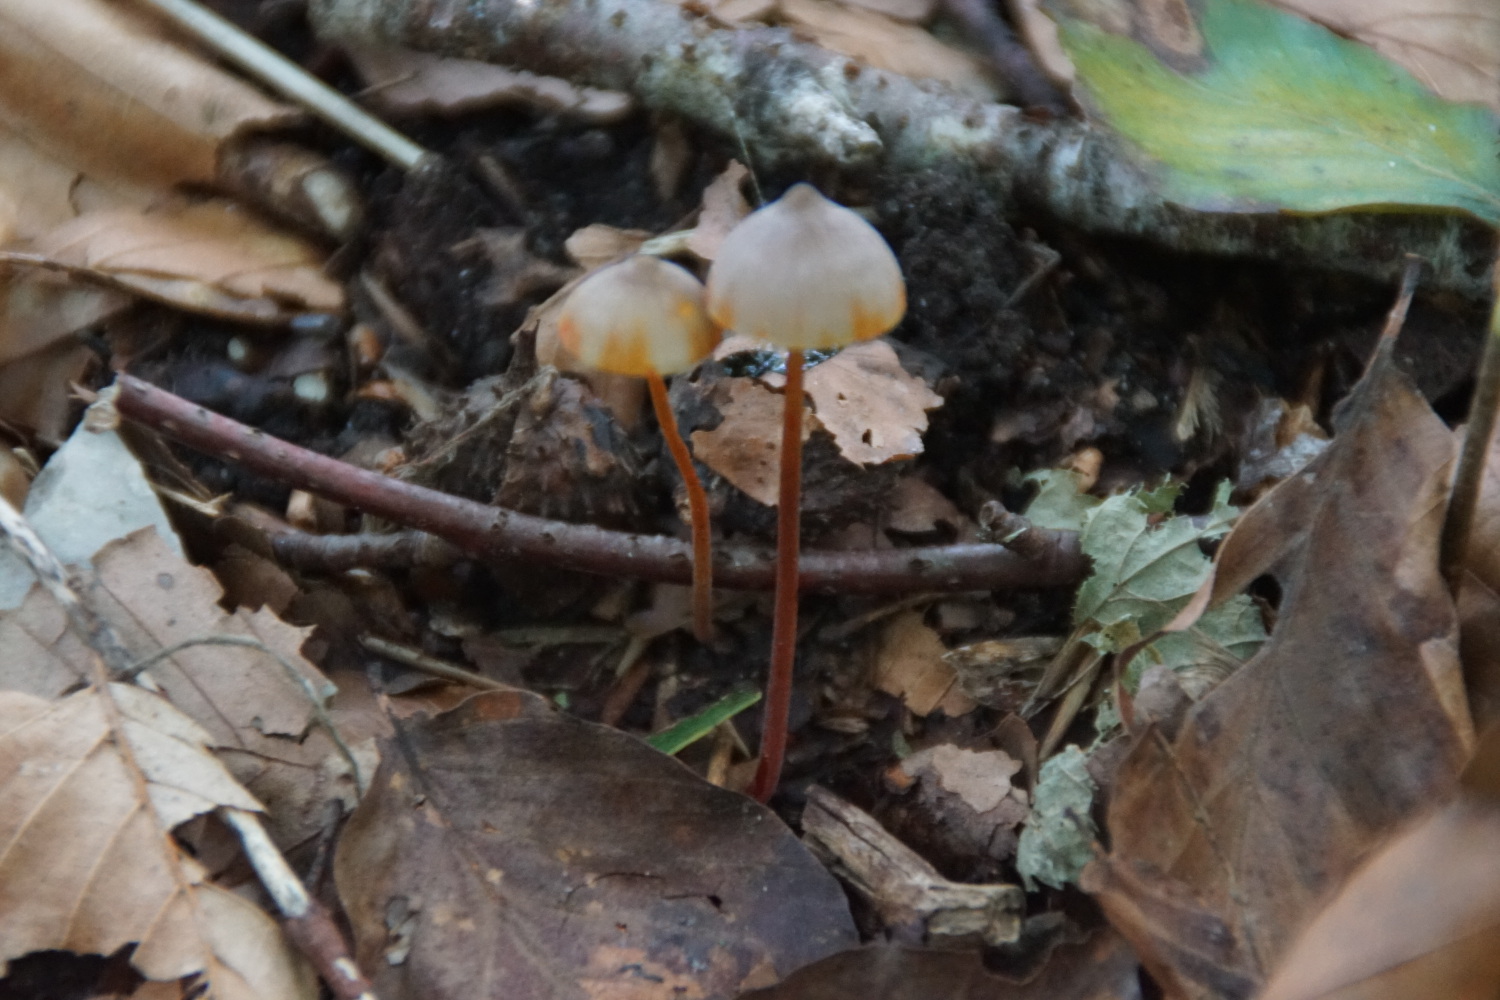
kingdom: Fungi
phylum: Basidiomycota
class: Agaricomycetes
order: Agaricales
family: Mycenaceae
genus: Mycena
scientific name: Mycena crocata
